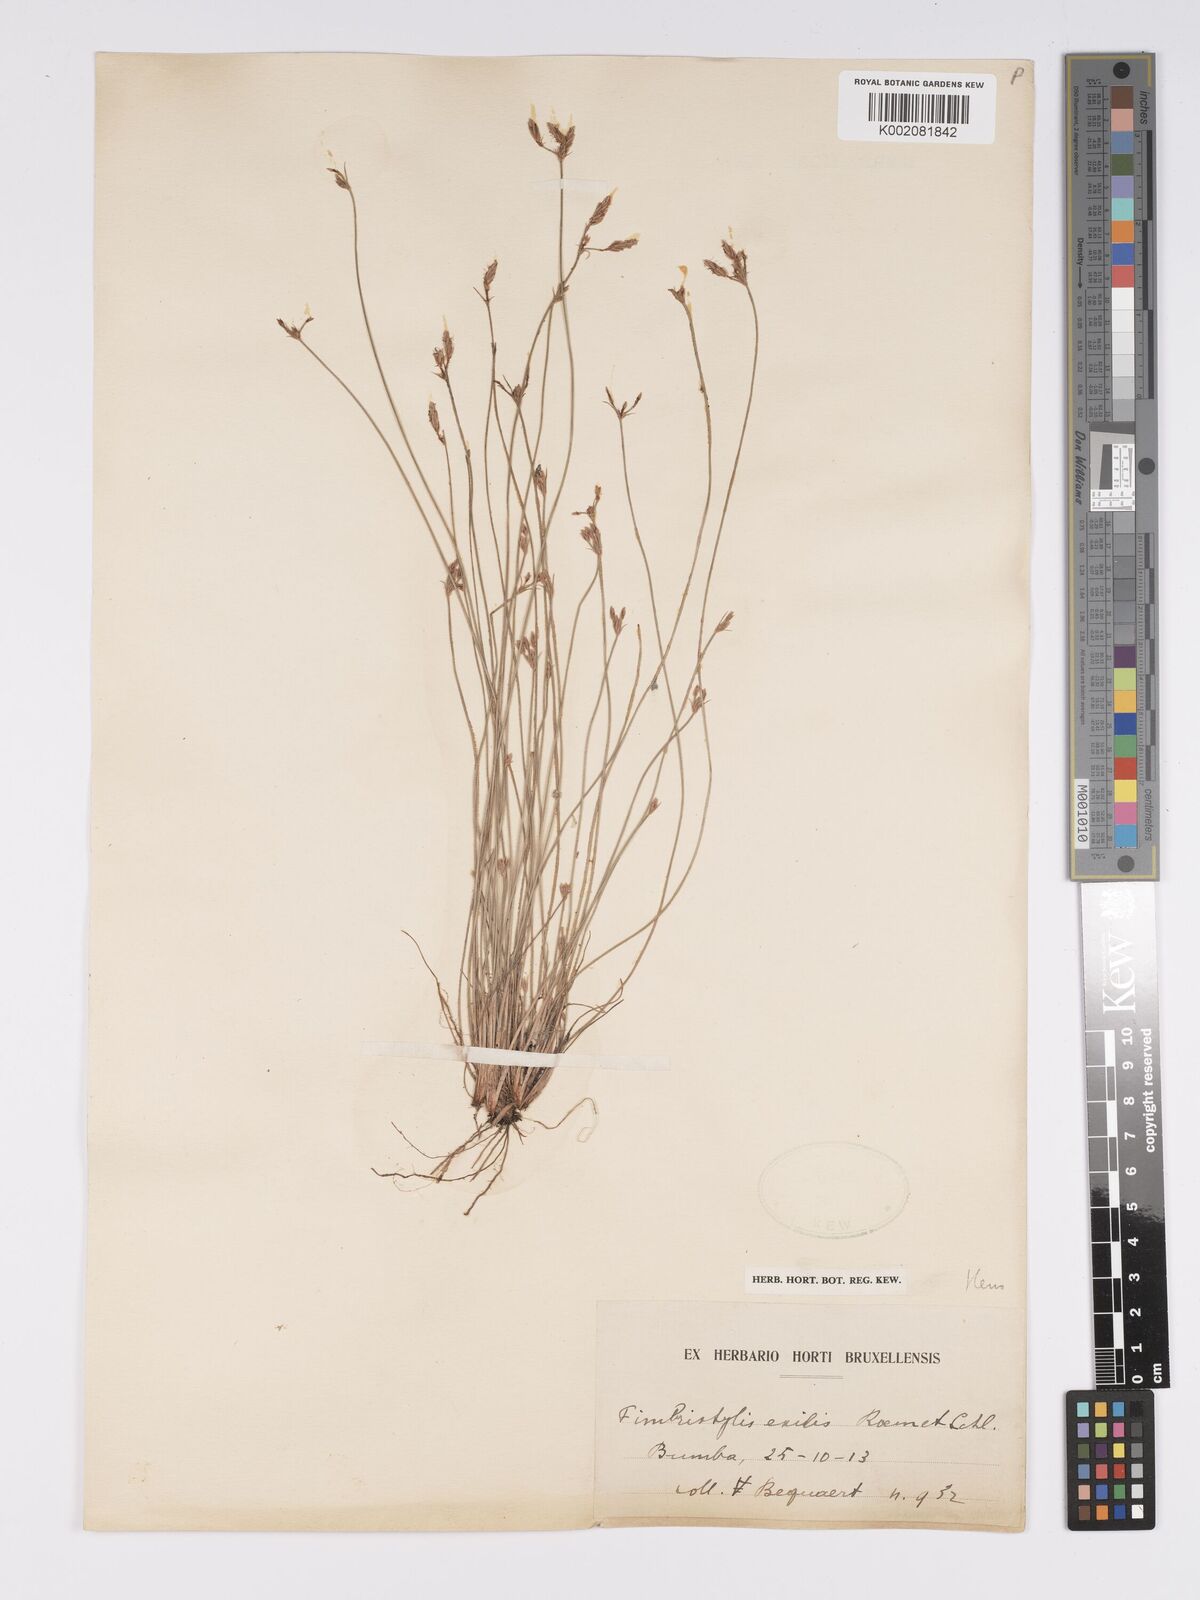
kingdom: Plantae
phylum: Tracheophyta
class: Liliopsida
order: Poales
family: Cyperaceae
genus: Bulbostylis
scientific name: Bulbostylis hispidula
